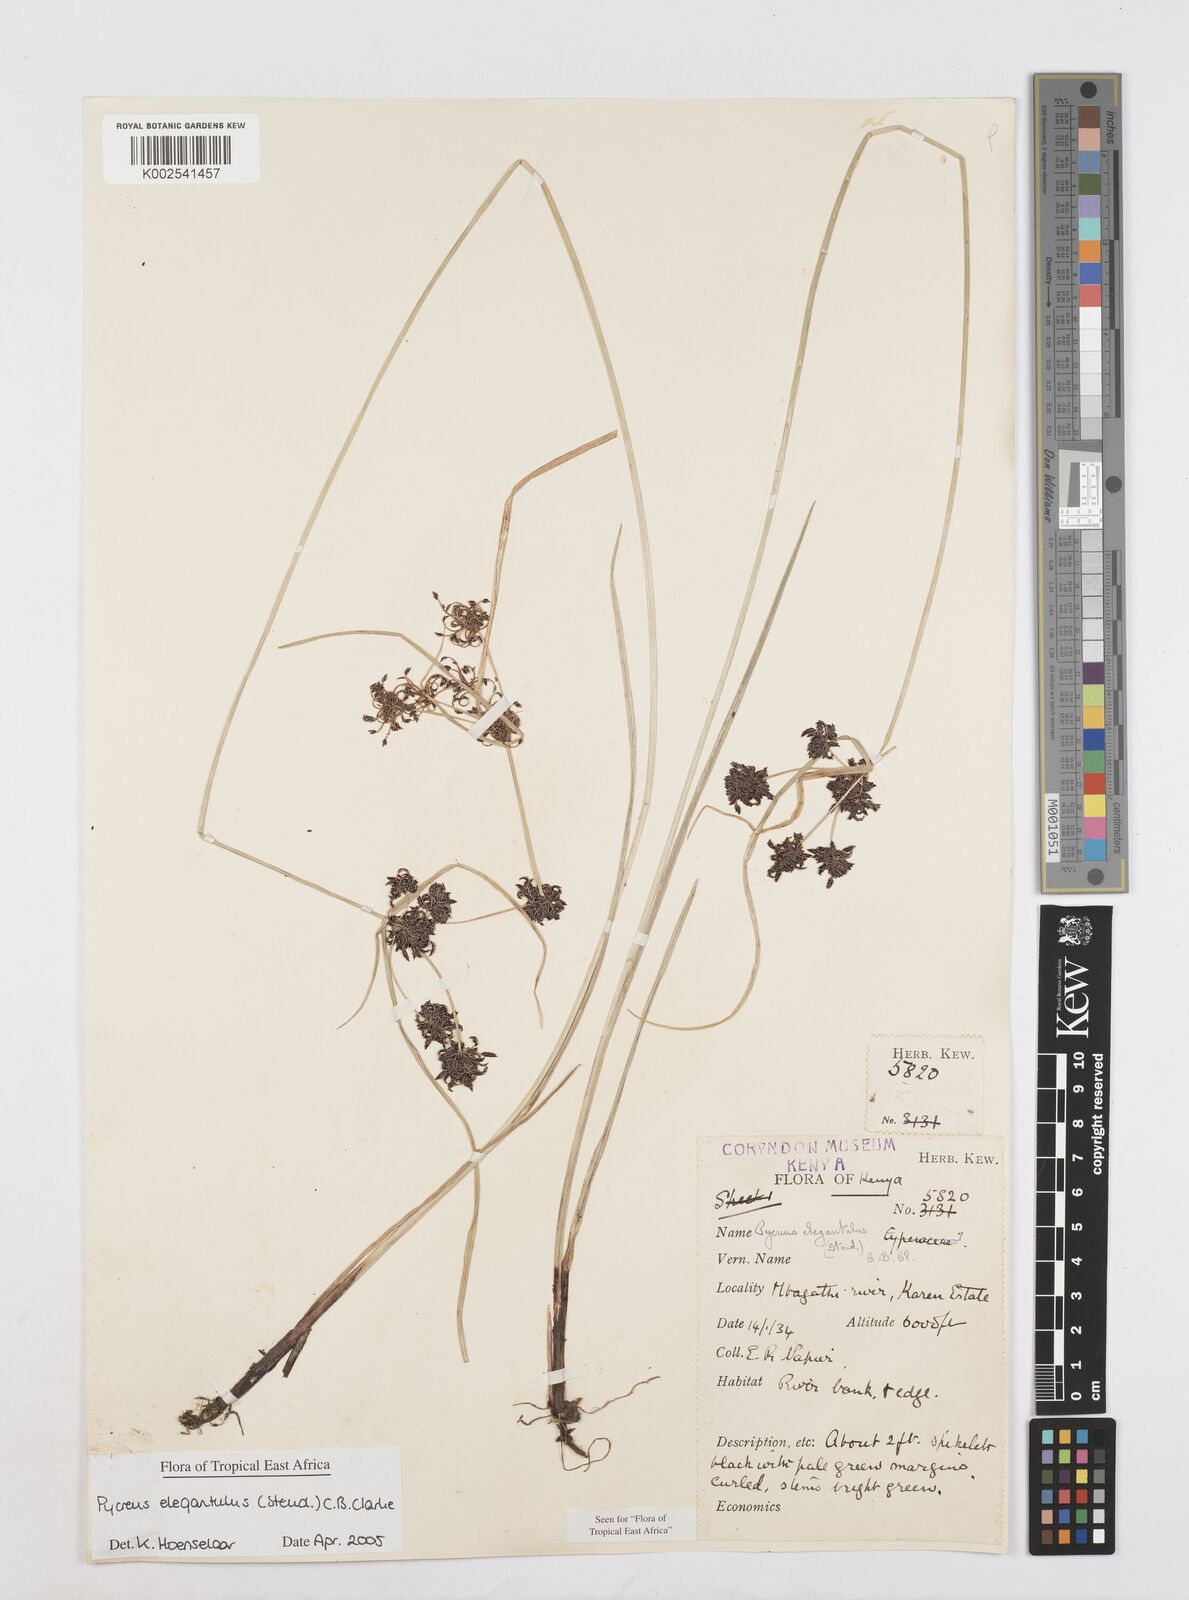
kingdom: Plantae
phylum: Tracheophyta
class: Liliopsida
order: Poales
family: Cyperaceae
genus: Cyperus
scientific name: Cyperus elegantulus
